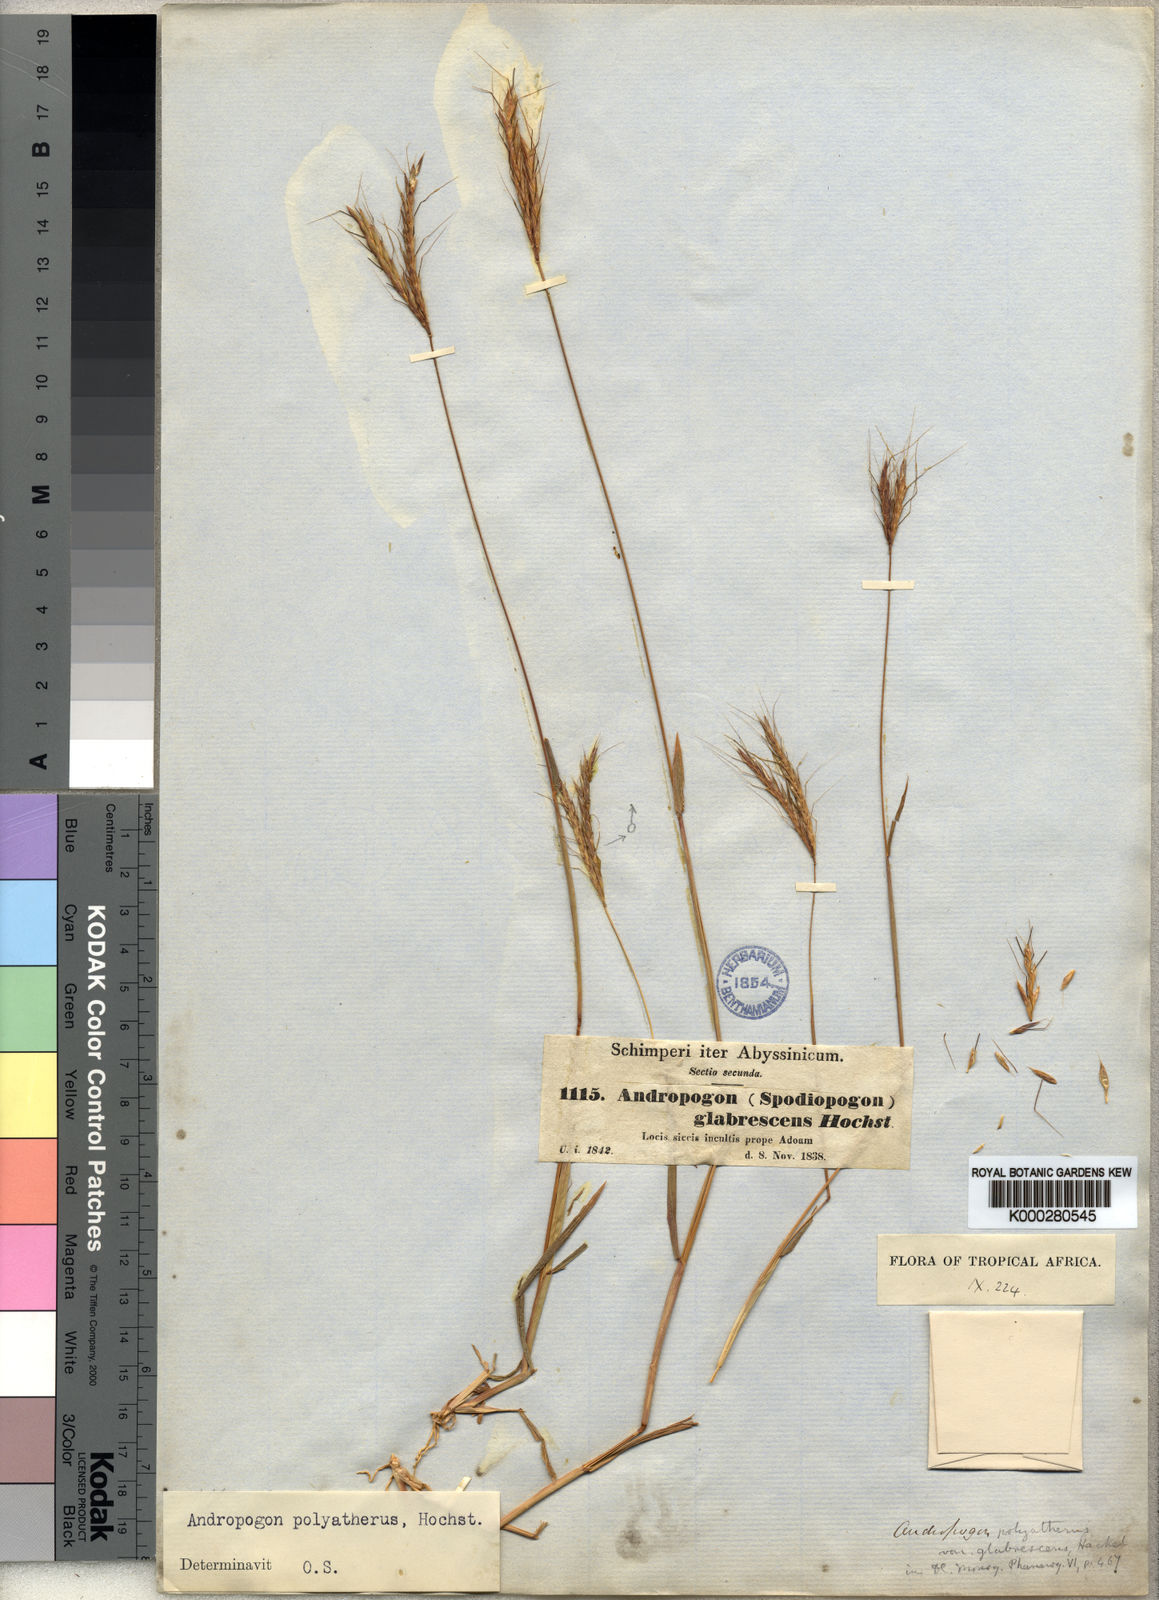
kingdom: Plantae
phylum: Tracheophyta
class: Liliopsida
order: Poales
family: Poaceae
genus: Andropogon
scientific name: Andropogon abyssinicus
